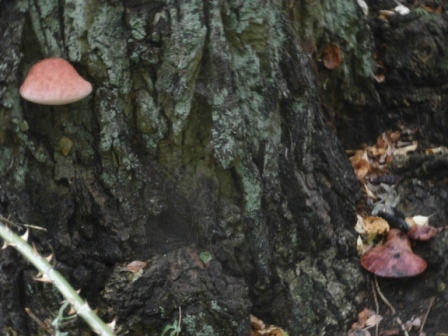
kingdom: Fungi
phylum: Basidiomycota
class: Agaricomycetes
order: Agaricales
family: Fistulinaceae
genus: Fistulina
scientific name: Fistulina hepatica
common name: oksetunge
